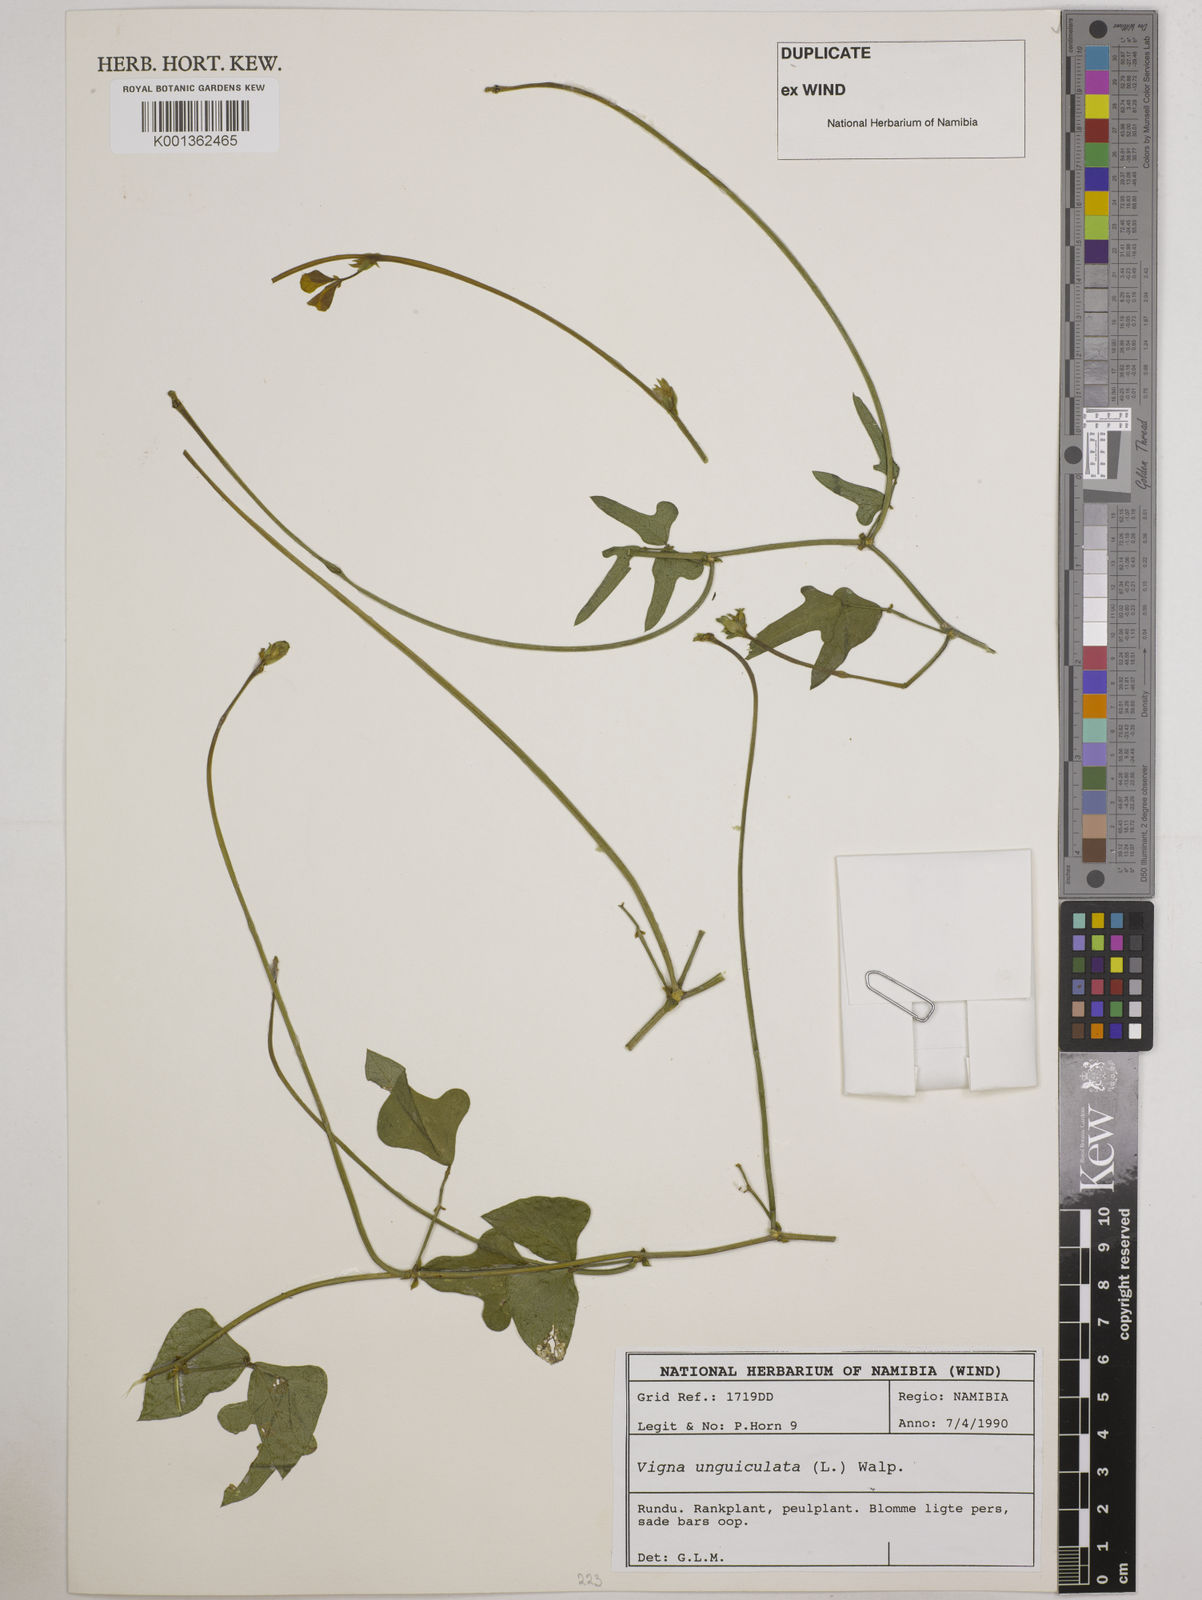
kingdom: Plantae
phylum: Tracheophyta
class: Magnoliopsida
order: Fabales
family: Fabaceae
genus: Vigna
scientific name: Vigna unguiculata
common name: Cowpea
